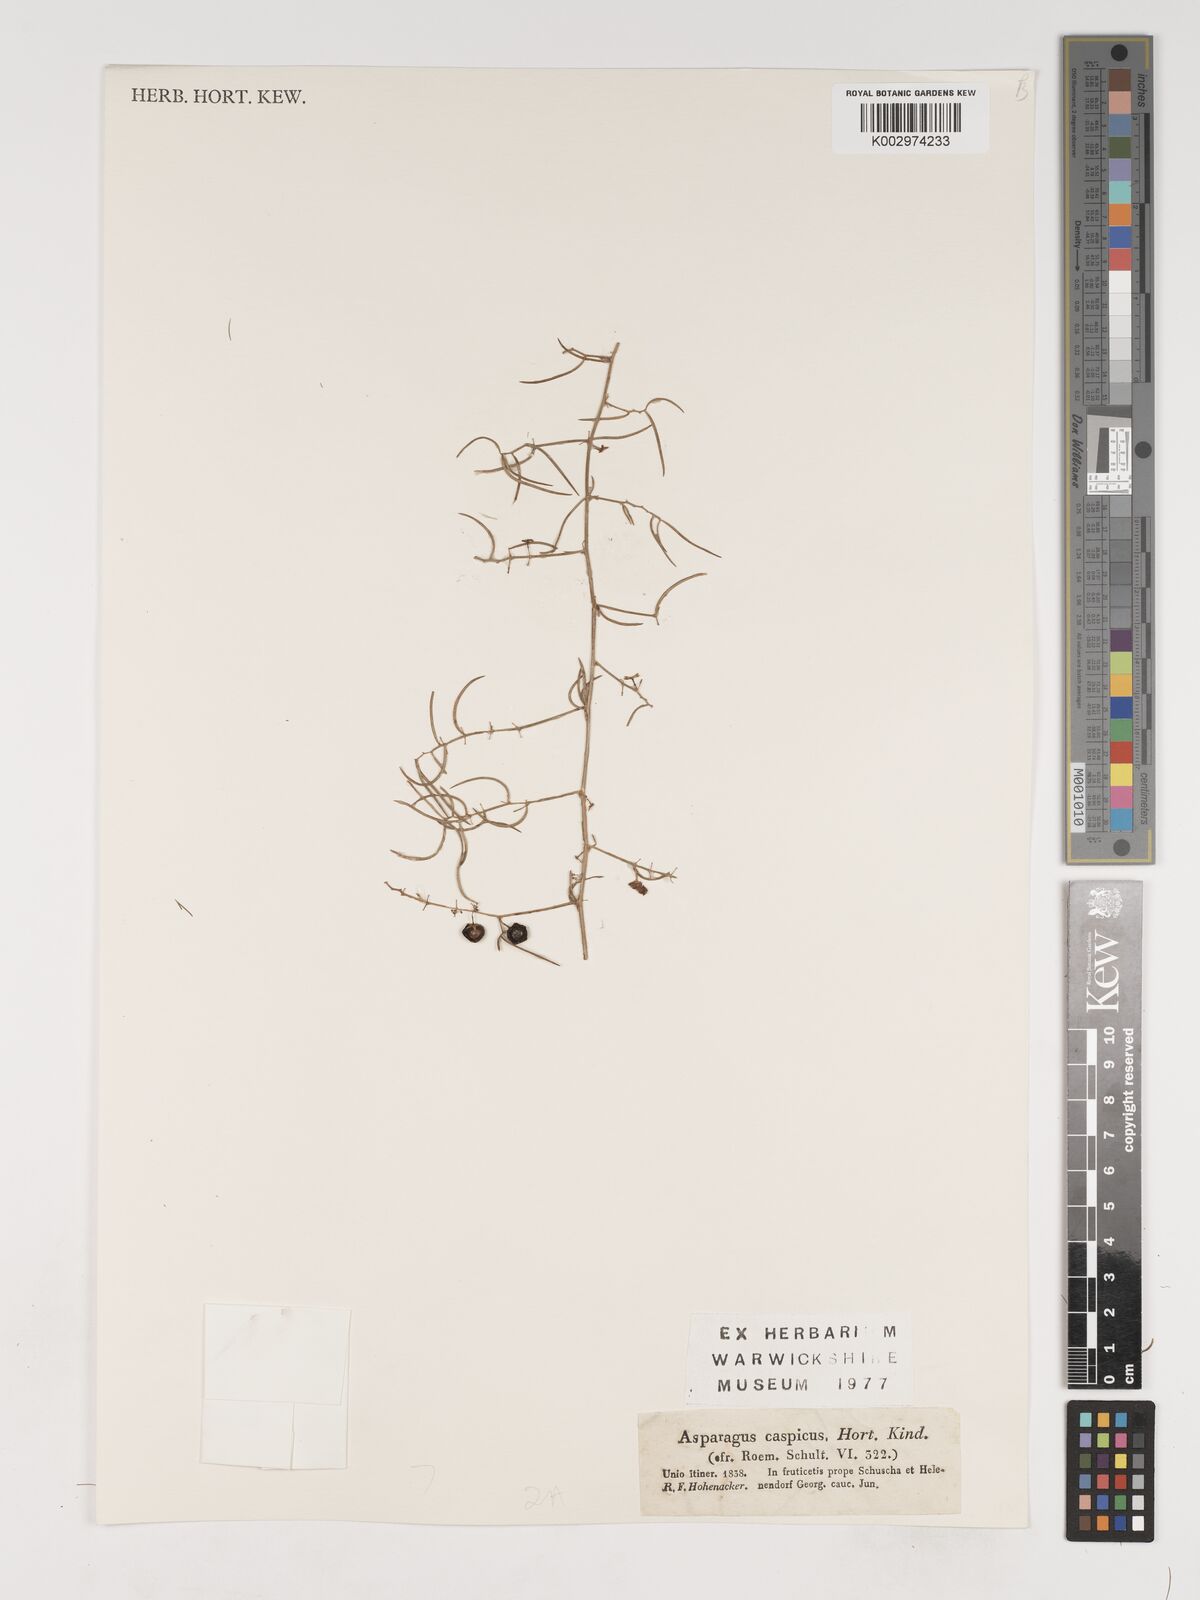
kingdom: Plantae
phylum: Tracheophyta
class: Liliopsida
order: Asparagales
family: Asparagaceae
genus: Asparagus
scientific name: Asparagus officinalis
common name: Garden asparagus
